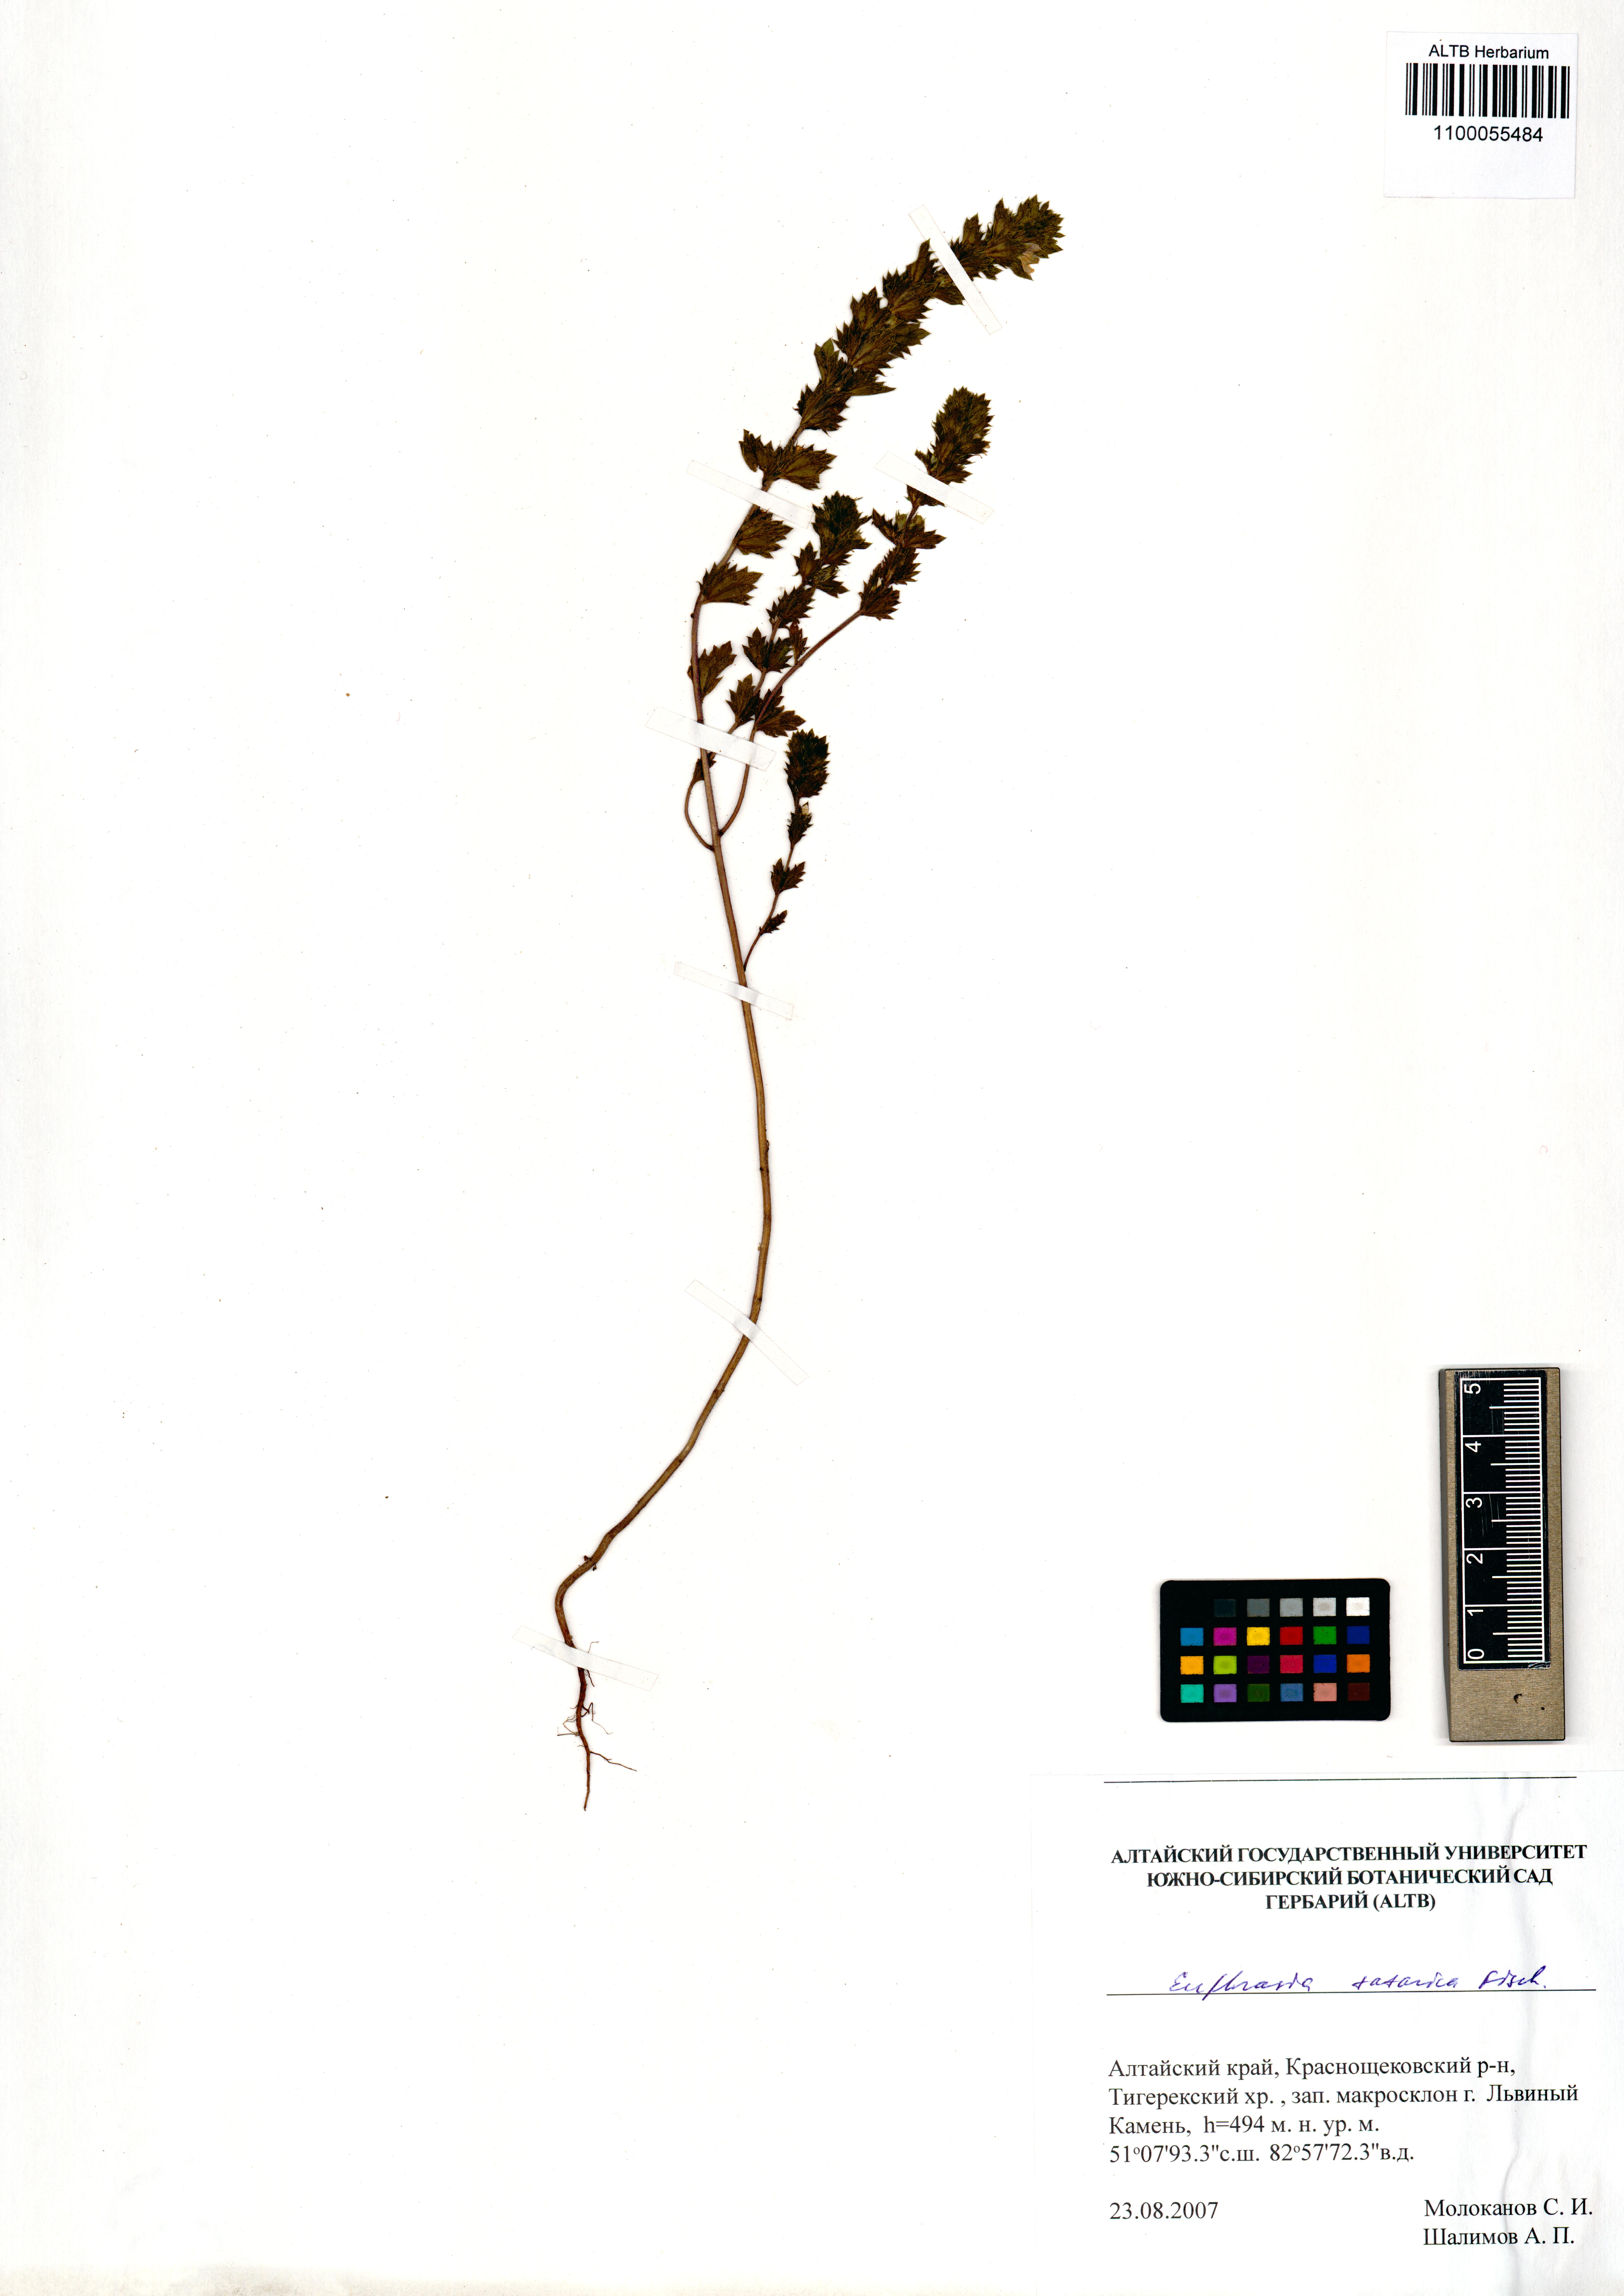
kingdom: Plantae
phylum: Tracheophyta
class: Magnoliopsida
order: Lamiales
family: Orobanchaceae
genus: Euphrasia
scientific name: Euphrasia pectinata
